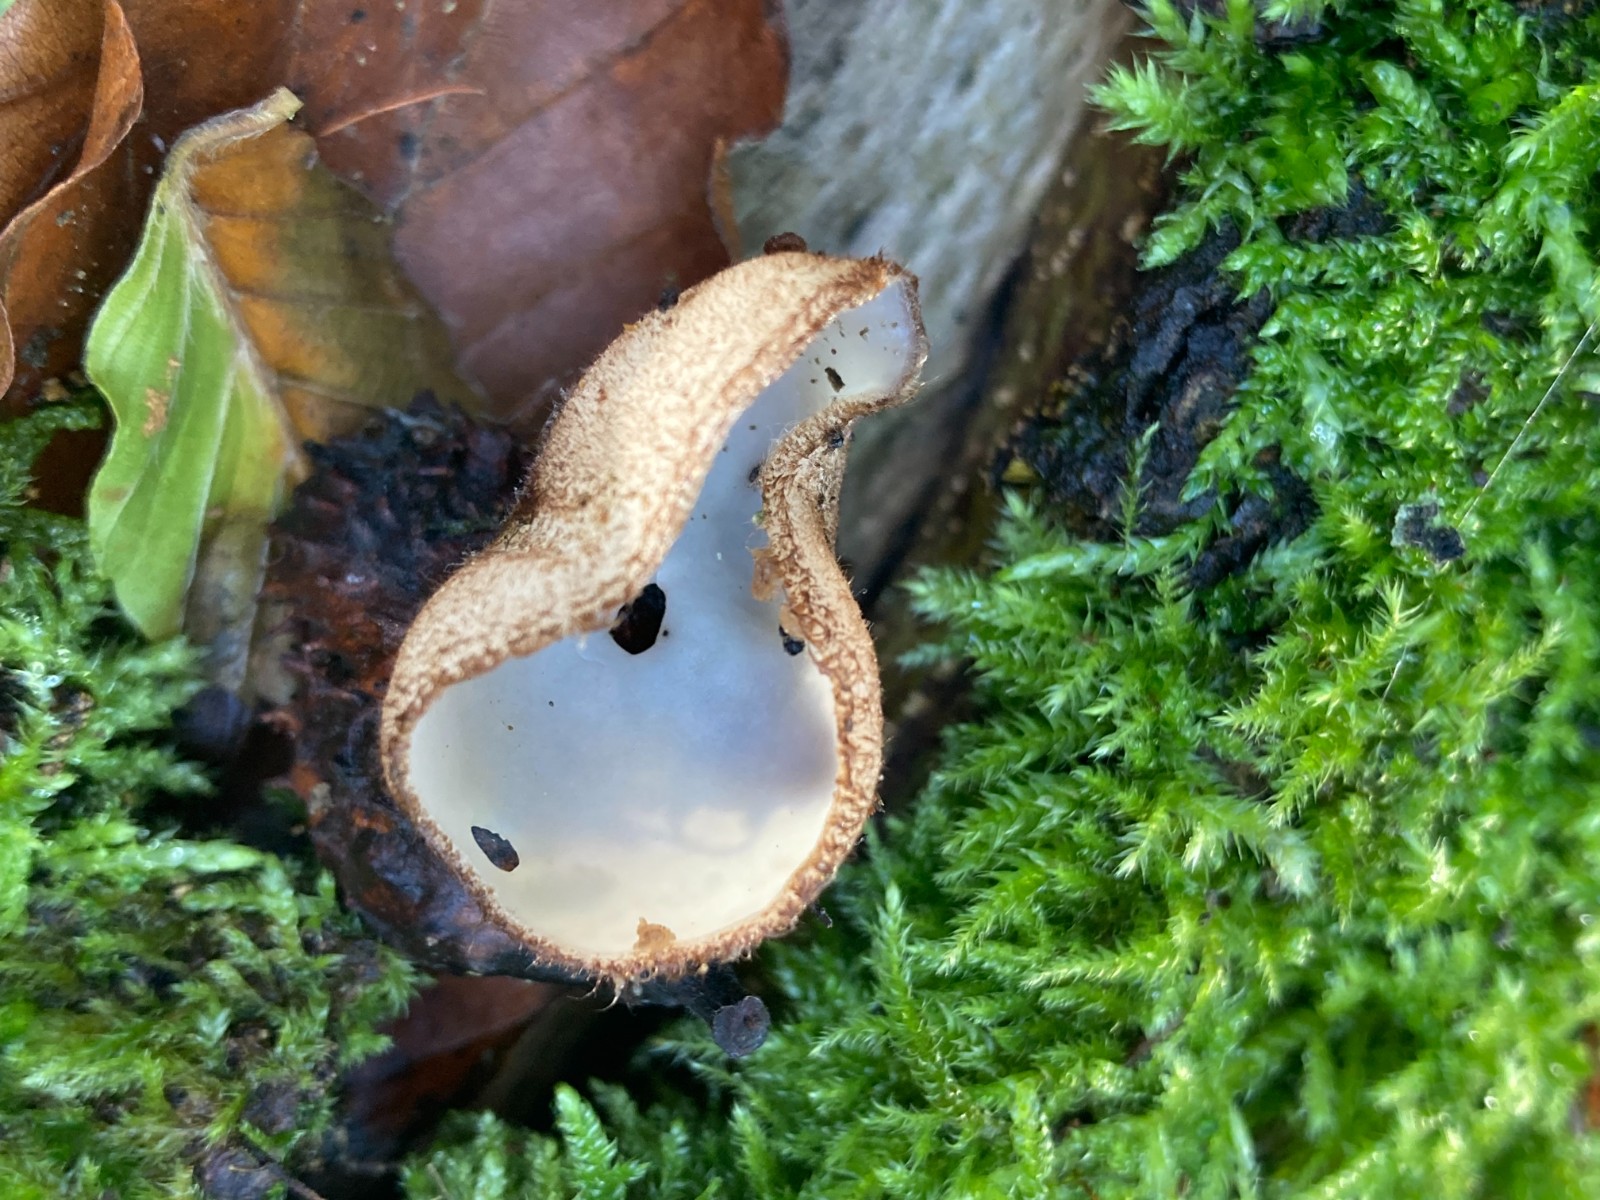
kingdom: Fungi
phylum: Ascomycota
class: Pezizomycetes
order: Pezizales
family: Pyronemataceae
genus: Humaria
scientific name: Humaria hemisphaerica
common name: halvkugleformet børstebæger
